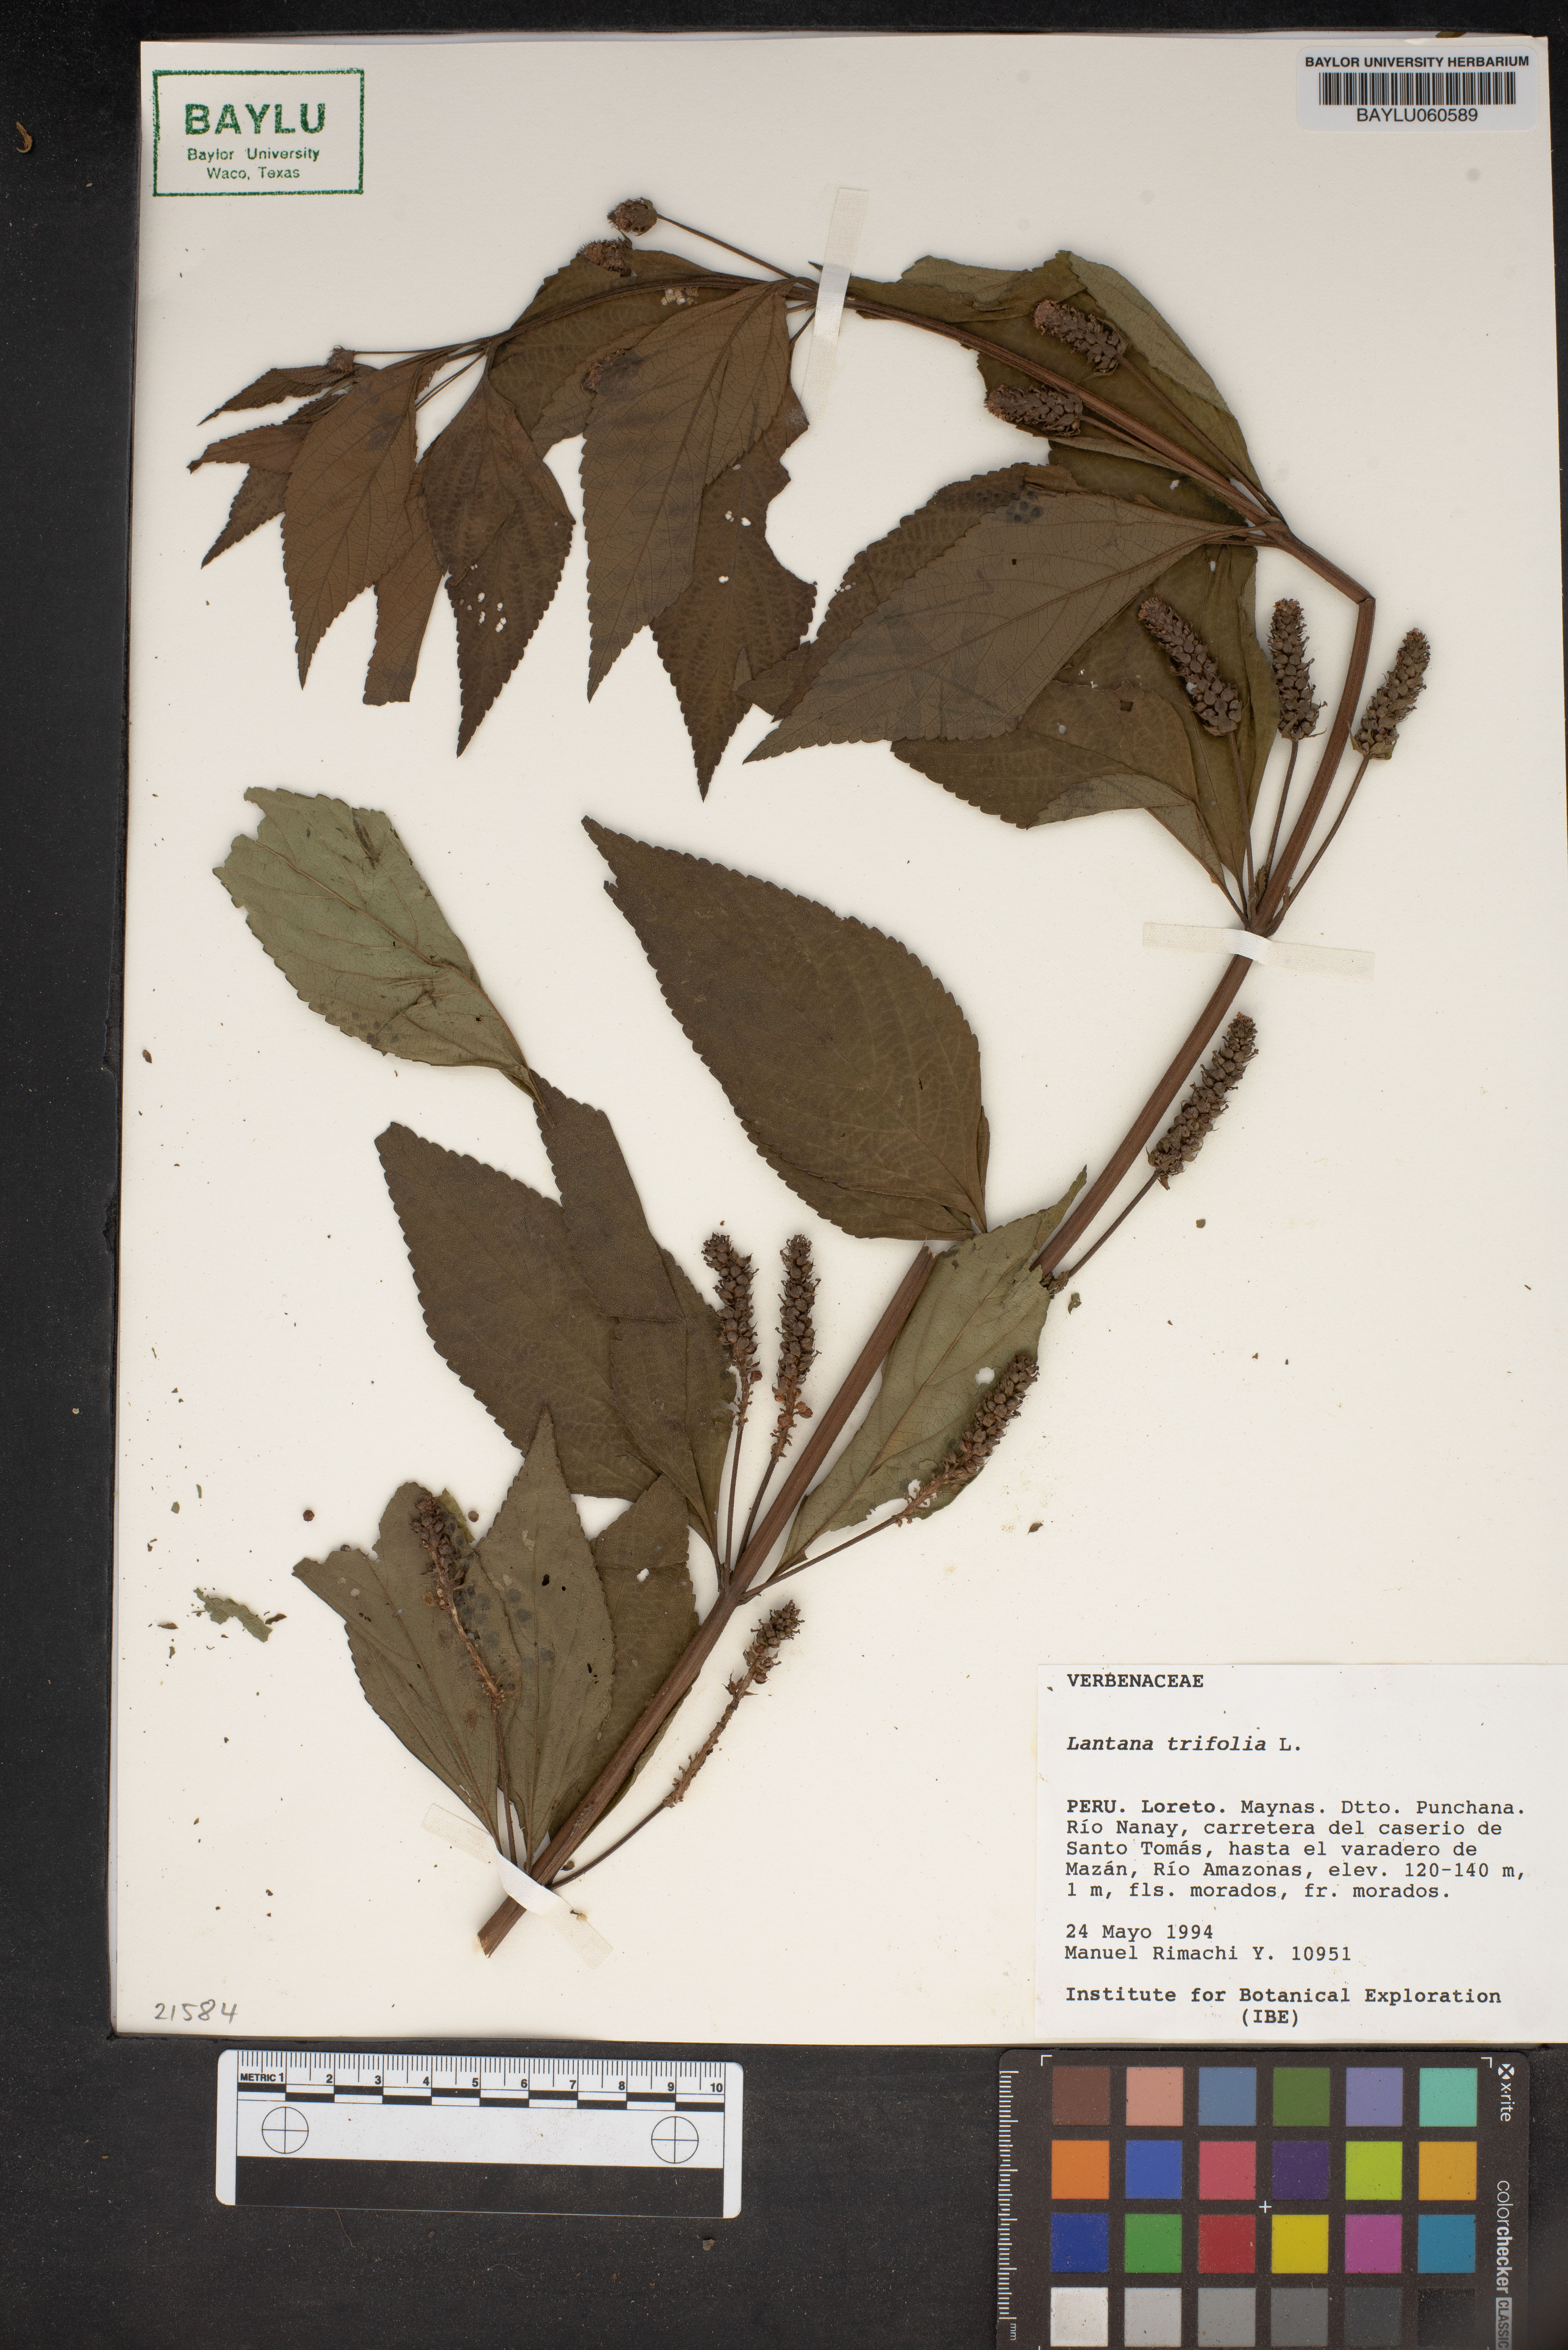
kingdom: Plantae
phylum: Tracheophyta
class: Magnoliopsida
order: Lamiales
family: Verbenaceae
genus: Lantana
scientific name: Lantana trifolia
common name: Sweet-sage
